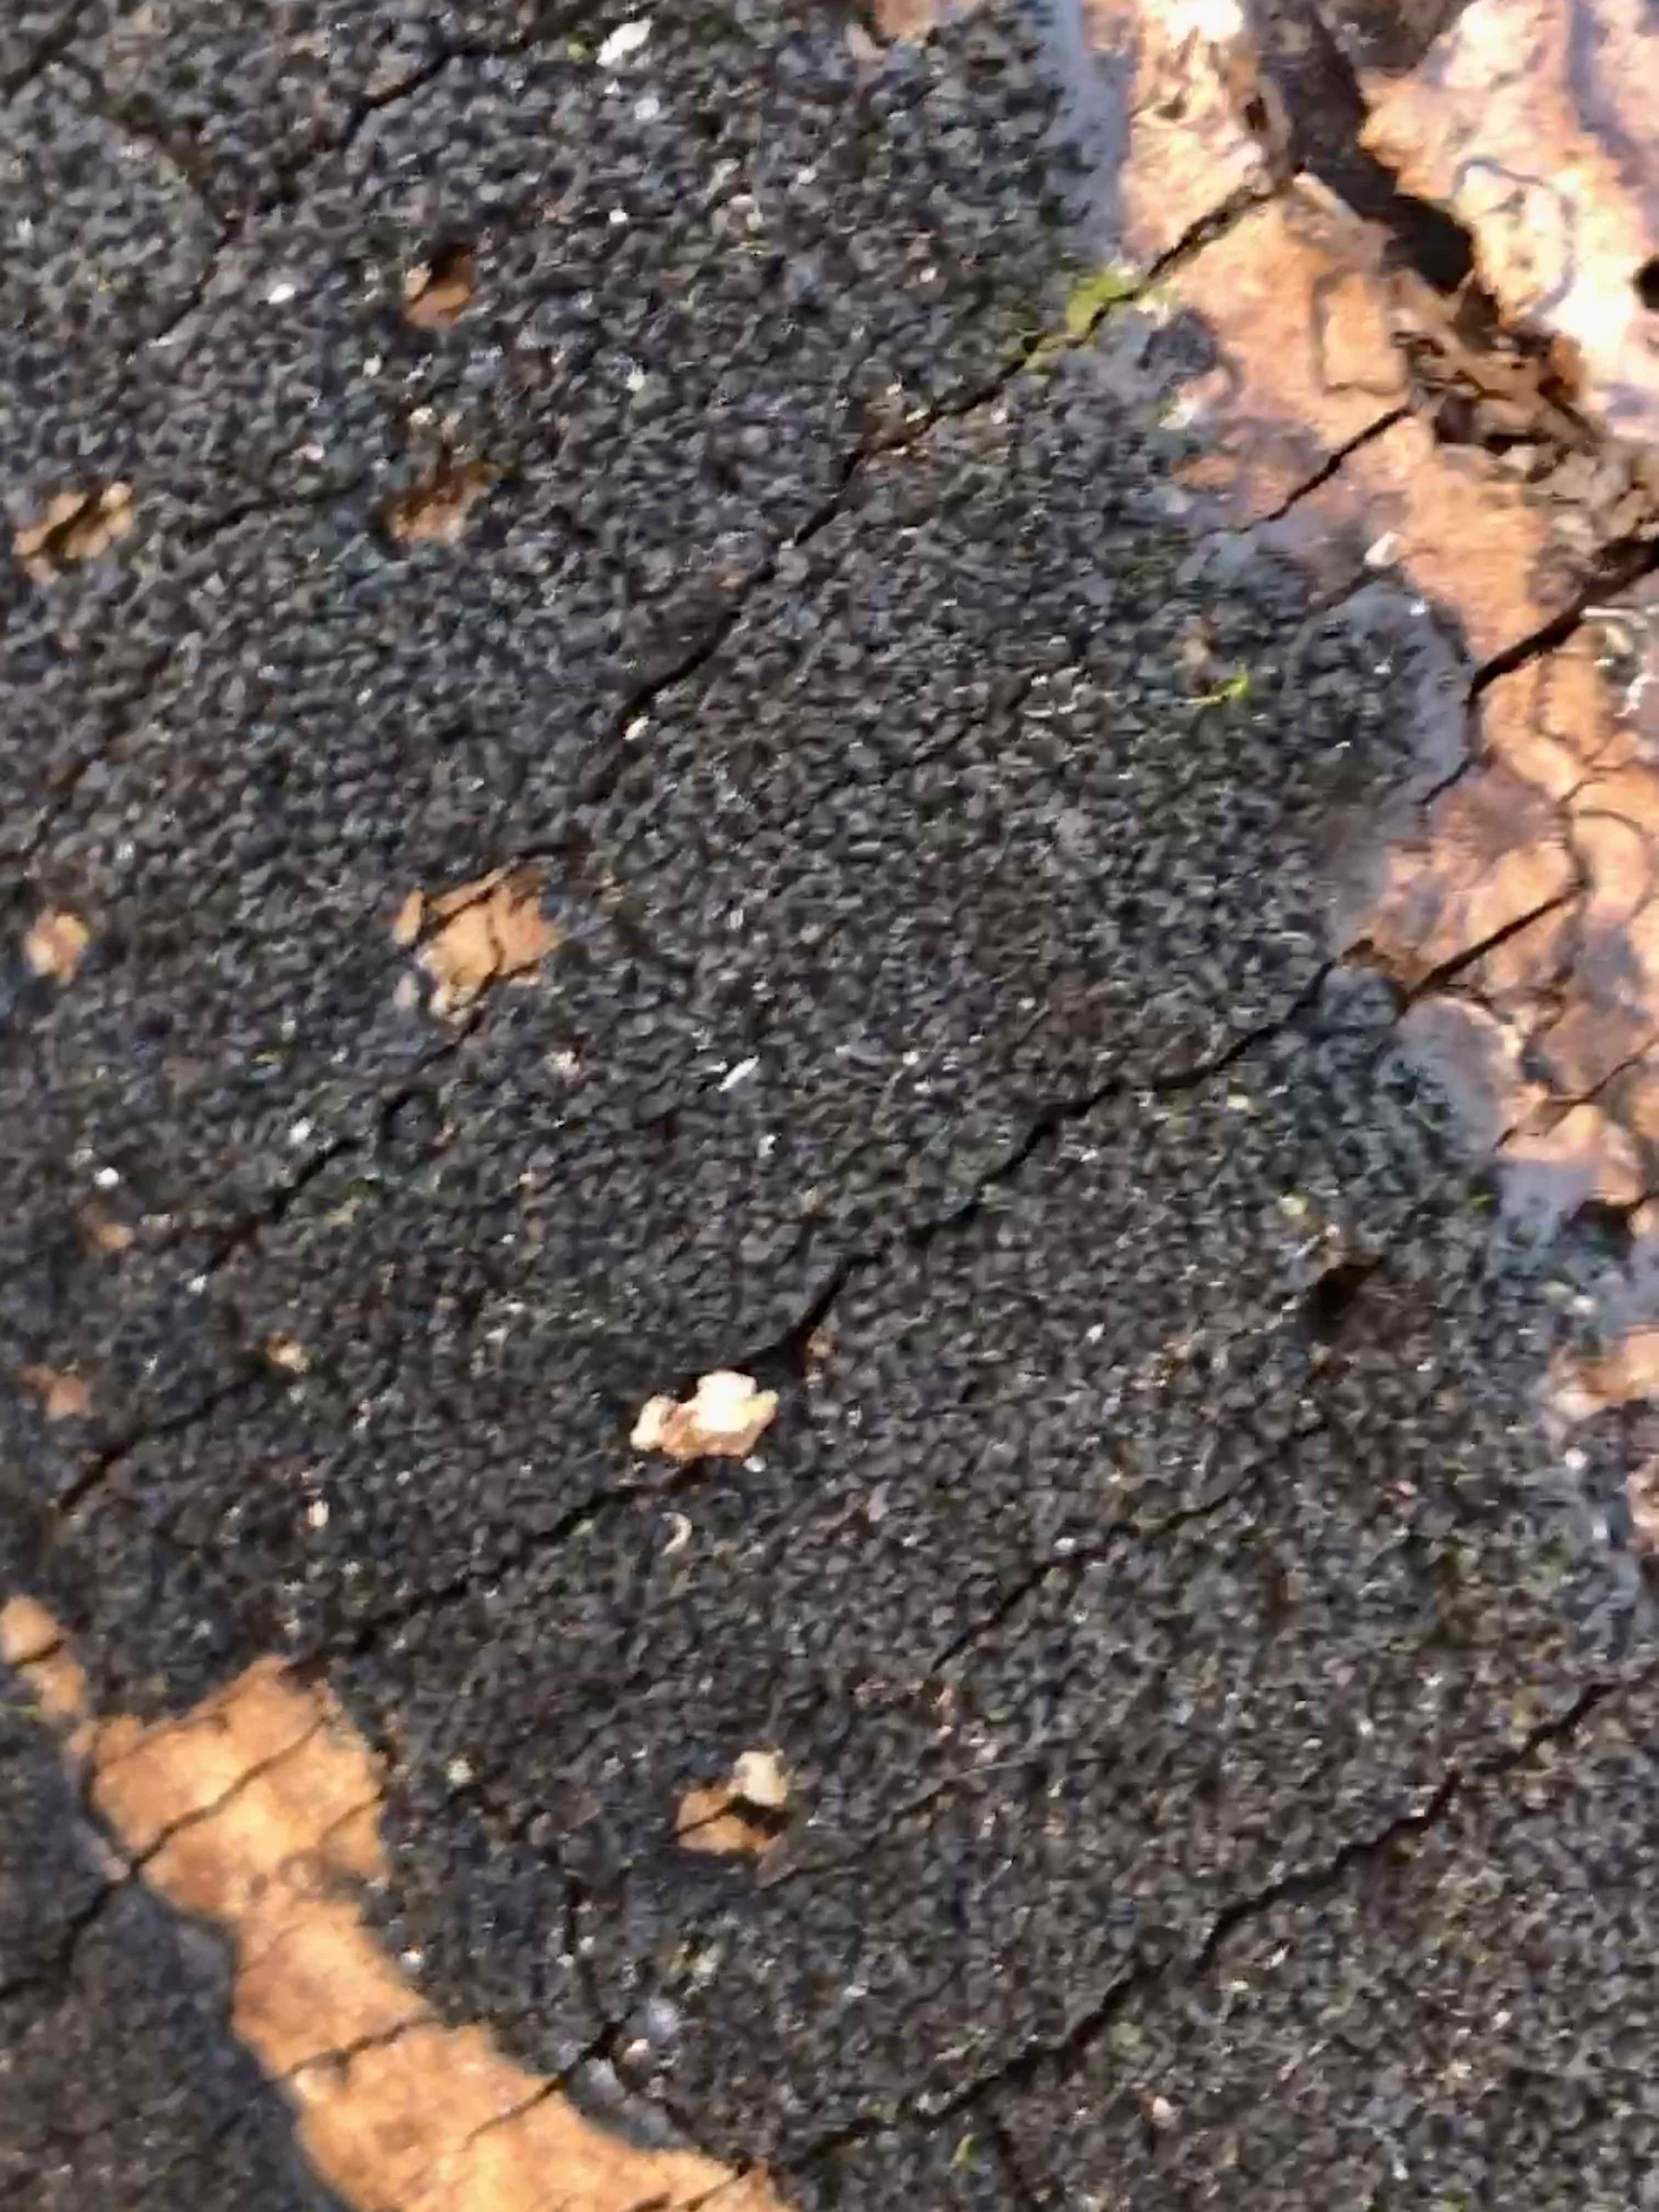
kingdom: Fungi
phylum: Ascomycota
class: Sordariomycetes
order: Xylariales
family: Diatrypaceae
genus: Eutypa
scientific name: Eutypa spinosa
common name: grov kulskorpe
